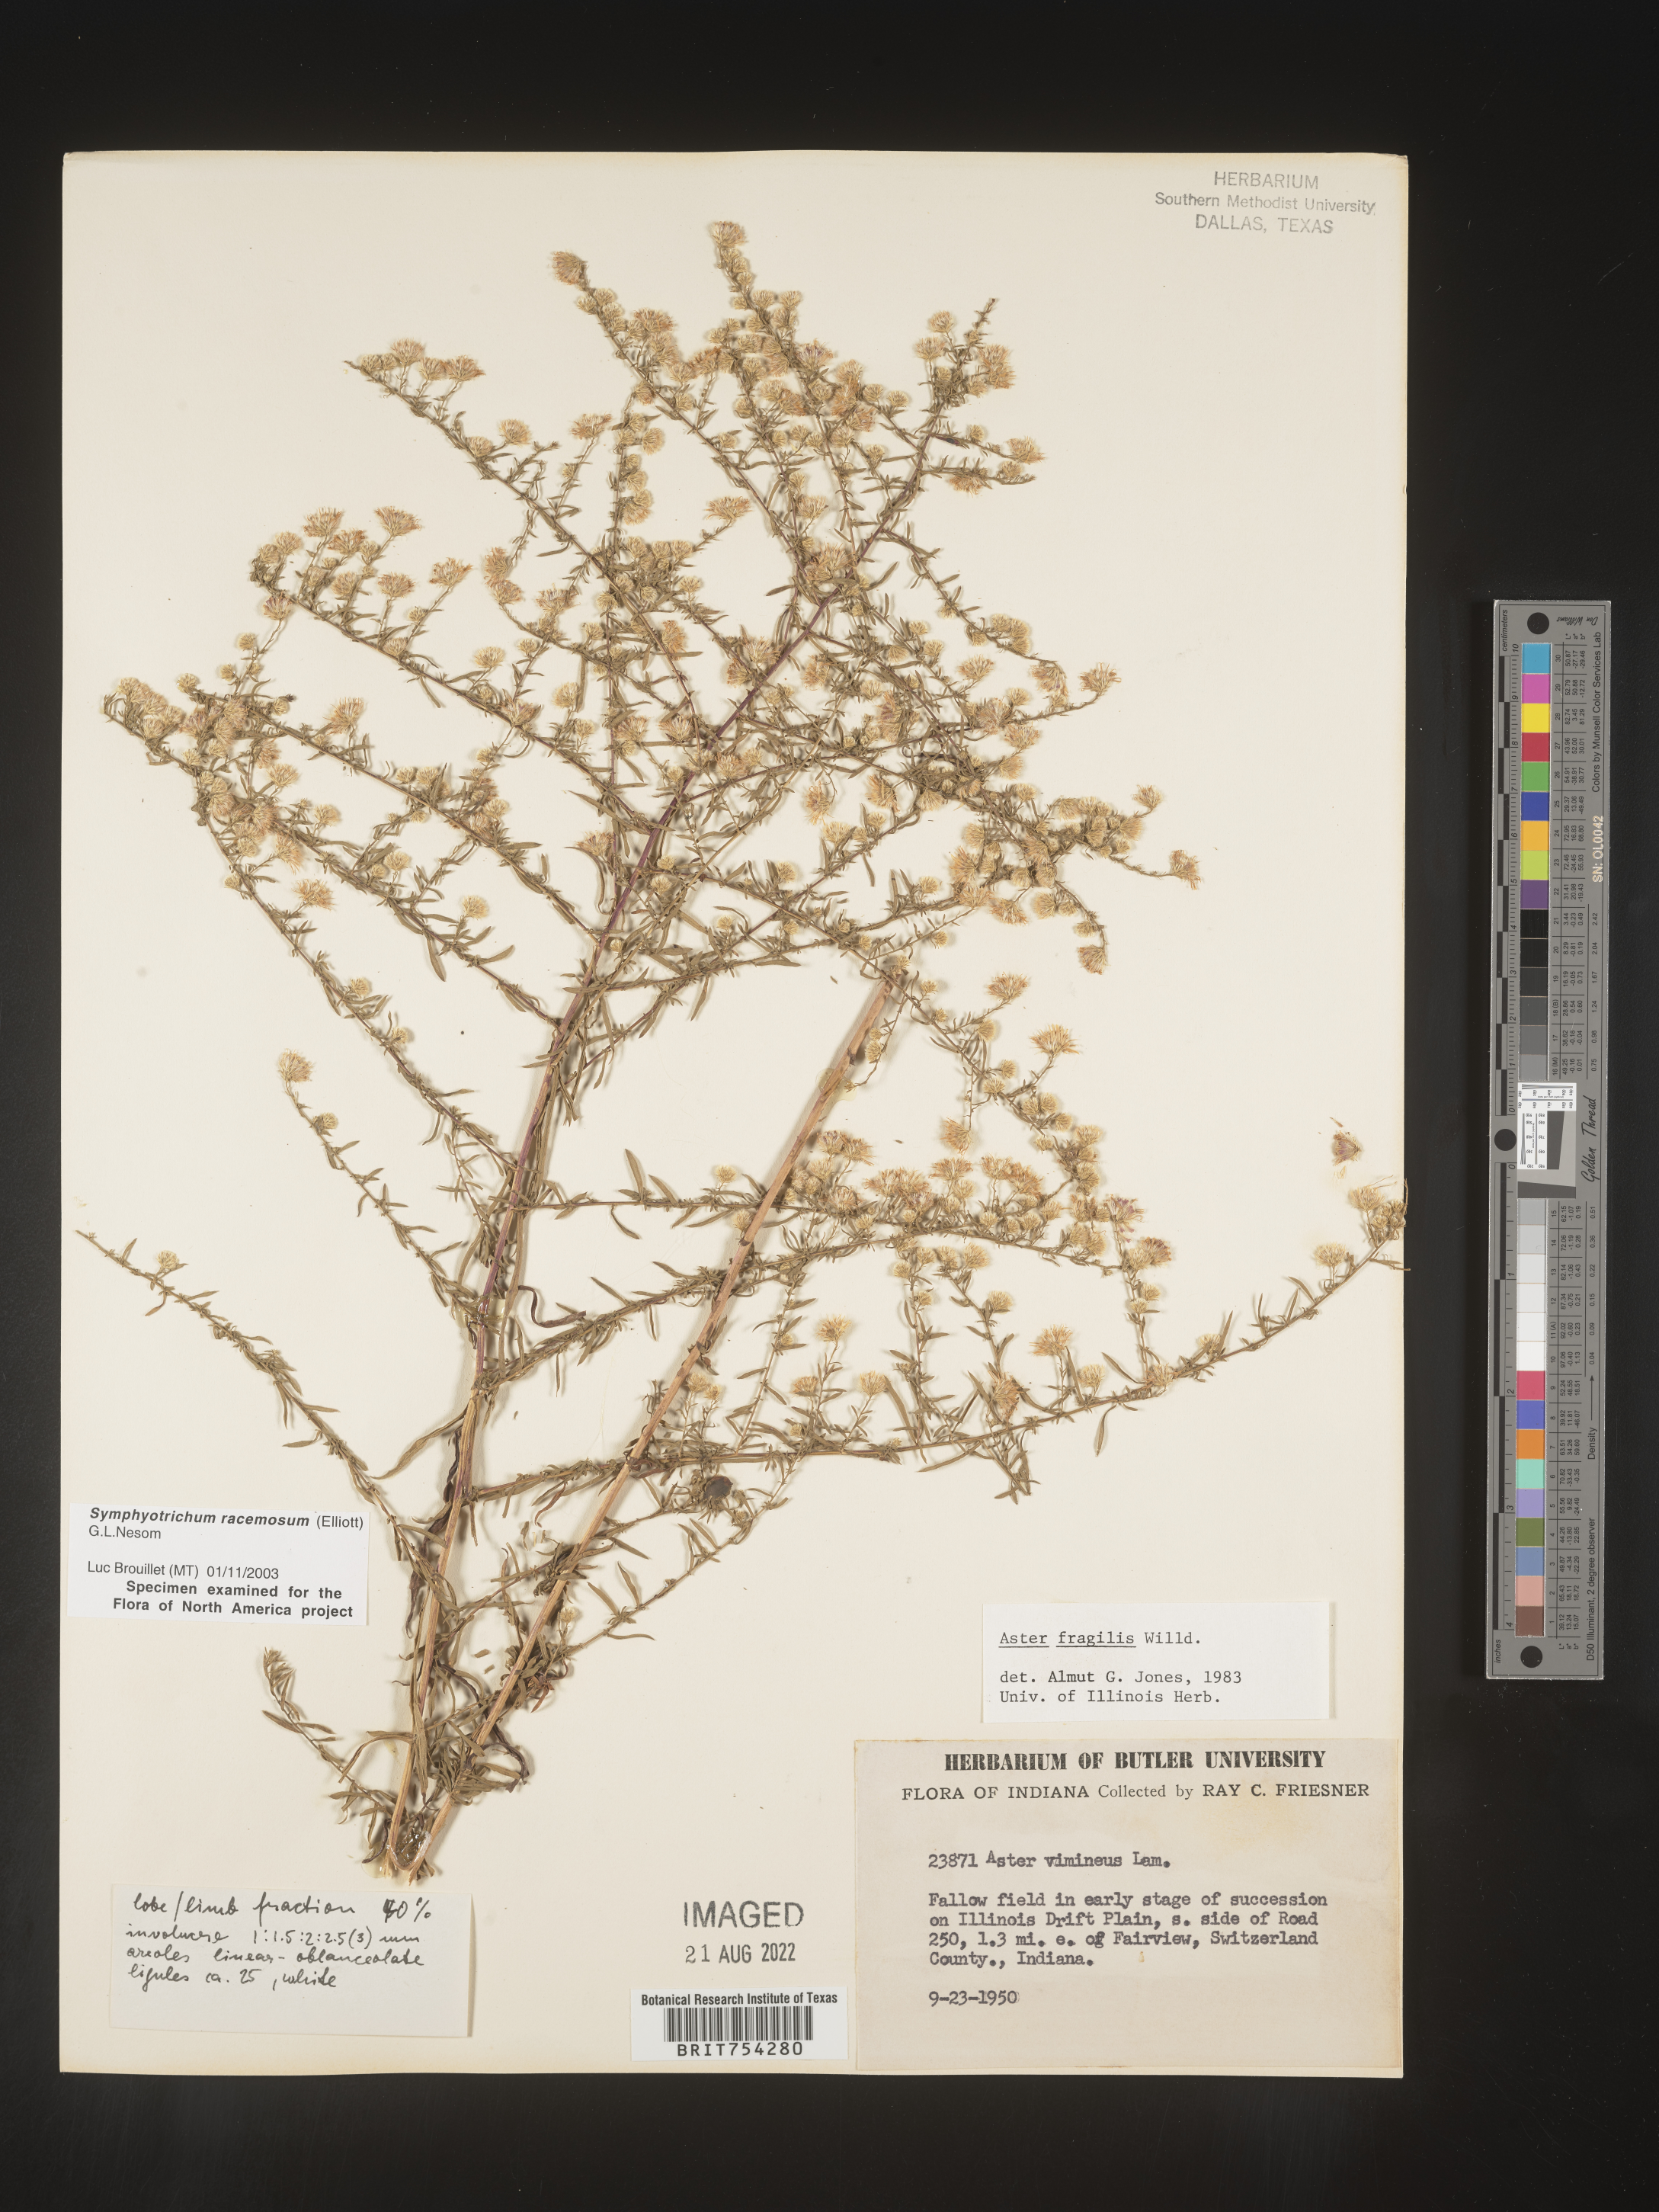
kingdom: Plantae
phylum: Tracheophyta
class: Magnoliopsida
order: Asterales
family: Asteraceae
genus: Symphyotrichum
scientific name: Symphyotrichum racemosum
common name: Small white aster
